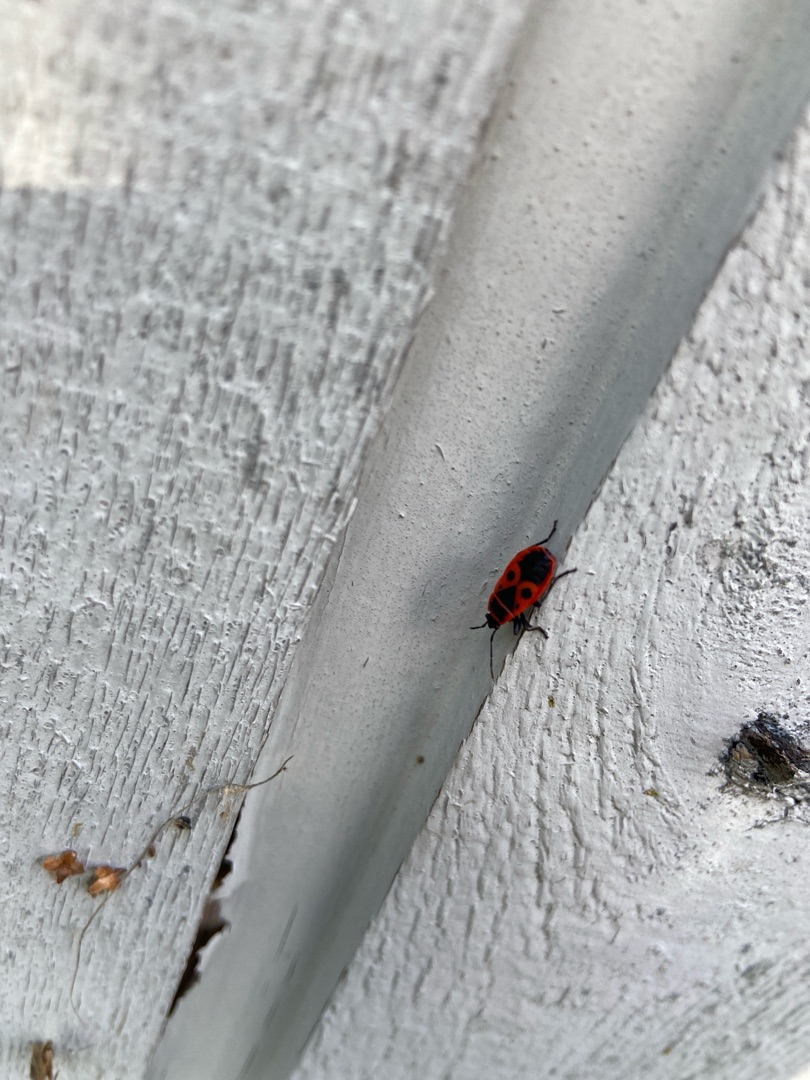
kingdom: Animalia
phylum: Arthropoda
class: Insecta
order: Hemiptera
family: Pyrrhocoridae
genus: Pyrrhocoris
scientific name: Pyrrhocoris apterus
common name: Ildtæge
